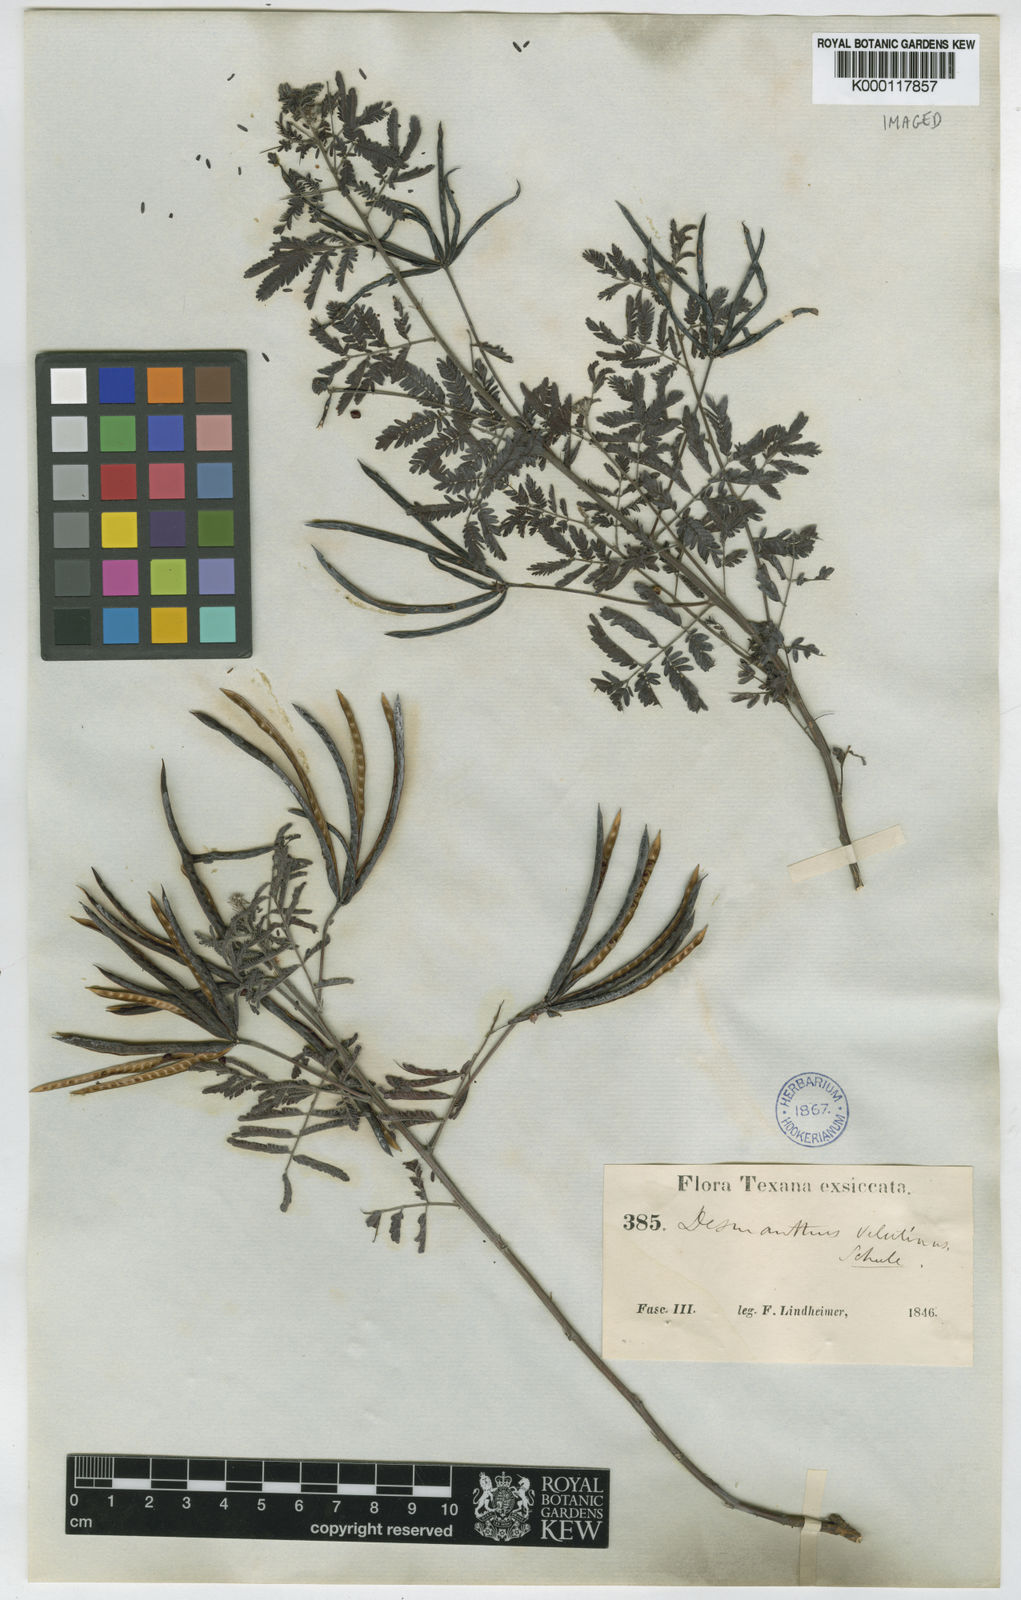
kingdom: Plantae
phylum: Tracheophyta
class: Magnoliopsida
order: Fabales
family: Fabaceae
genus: Desmanthus
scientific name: Desmanthus velutinus
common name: Velvet bundle-flower
